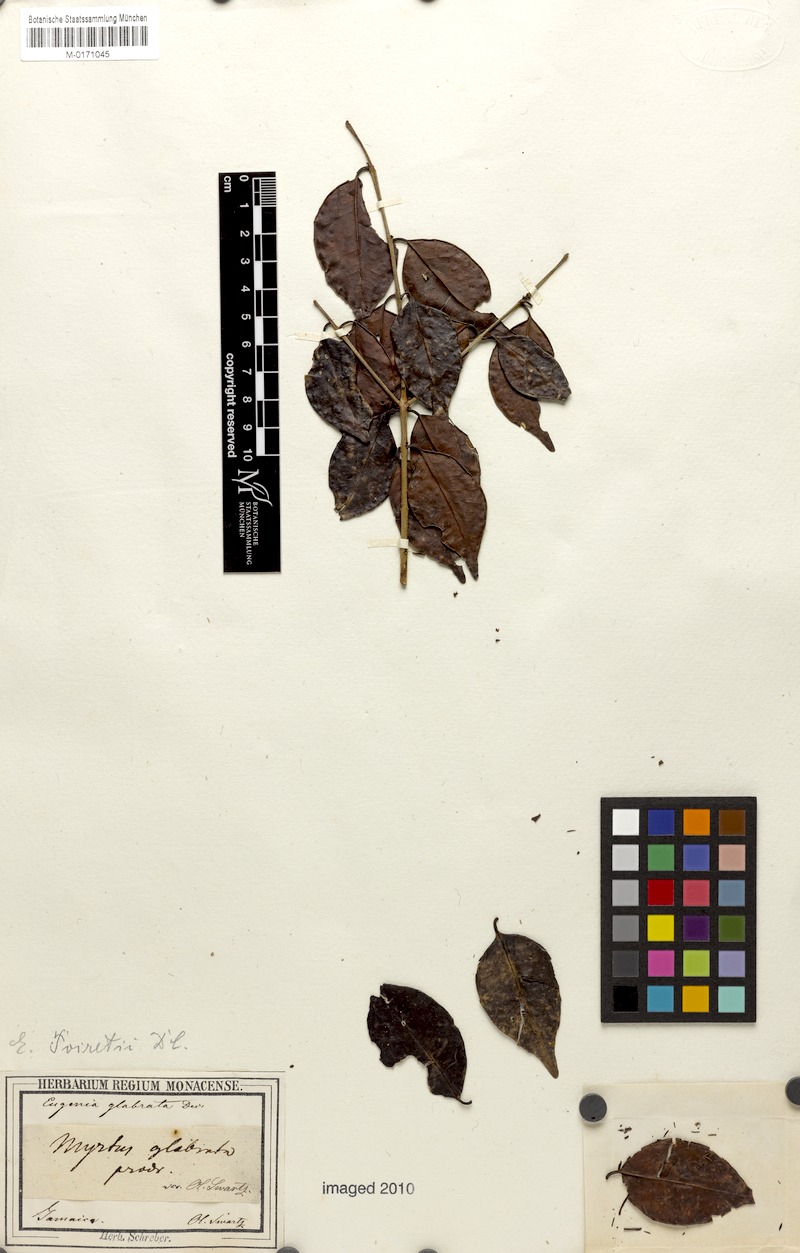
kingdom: Plantae
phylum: Tracheophyta
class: Magnoliopsida
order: Myrtales
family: Myrtaceae
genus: Eugenia
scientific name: Eugenia glabrata
